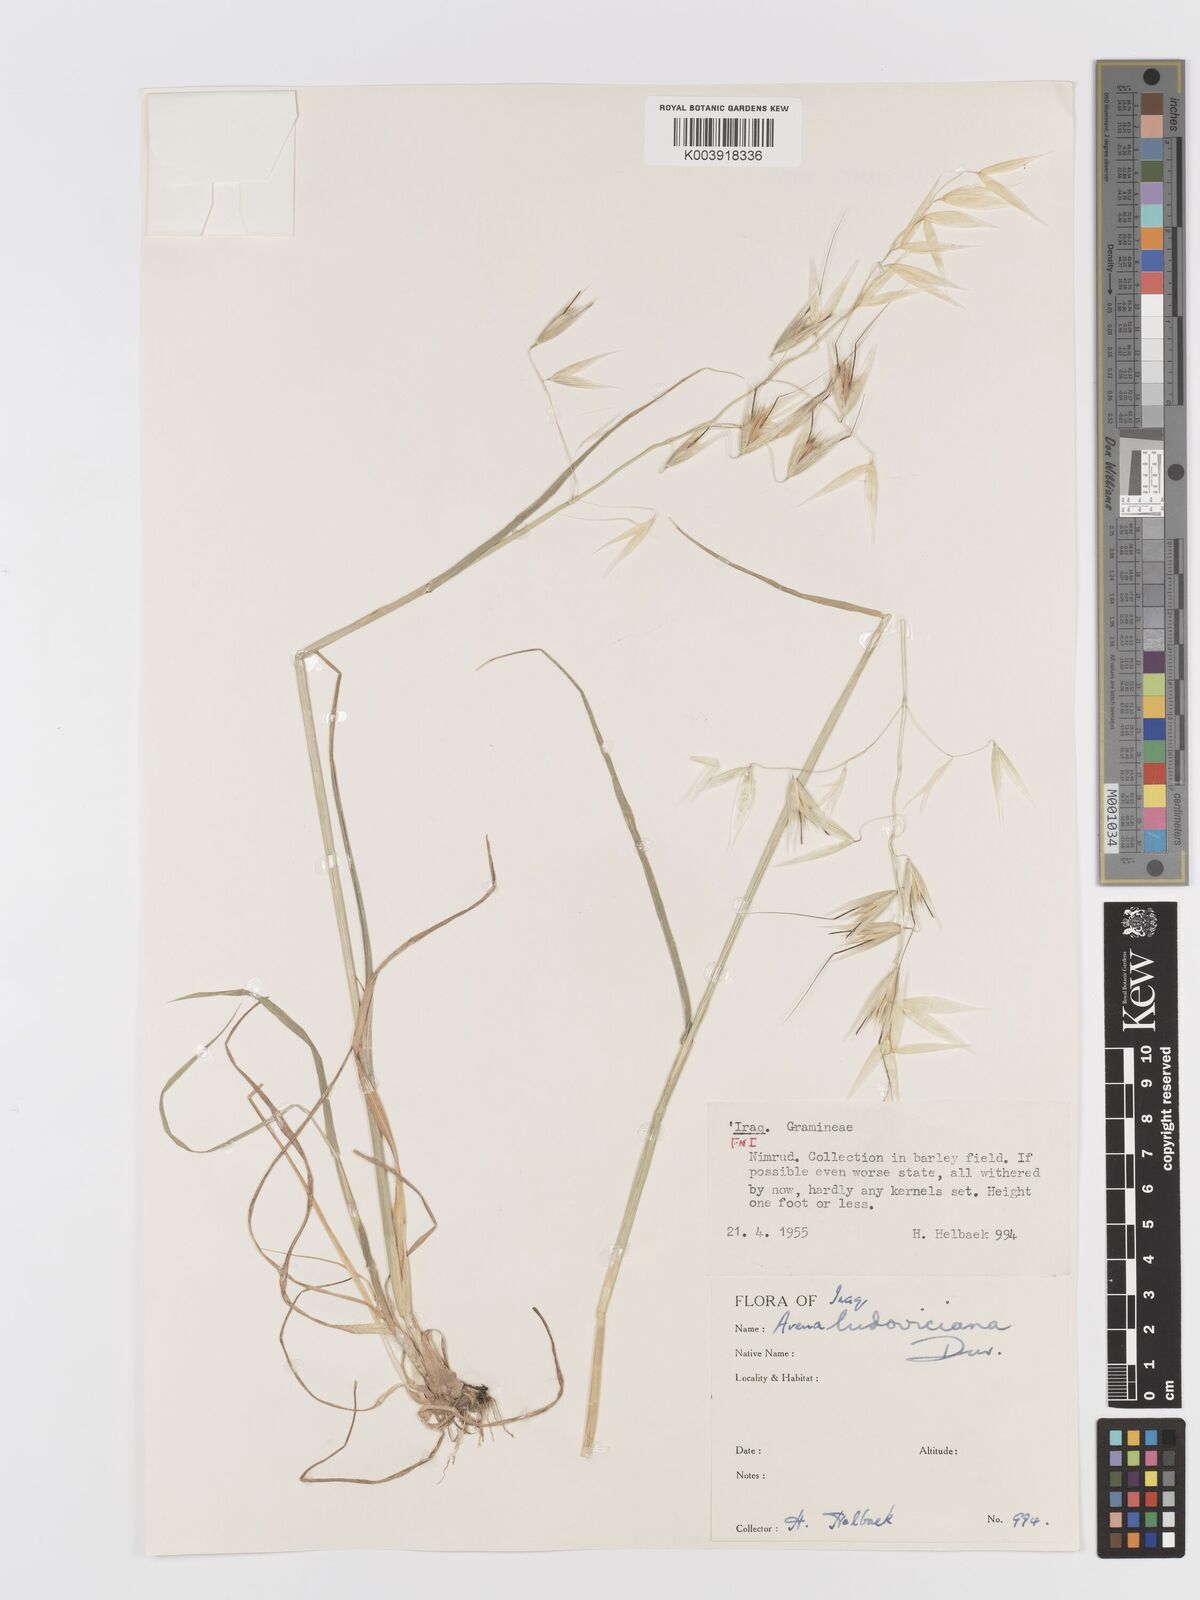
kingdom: Plantae
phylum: Tracheophyta
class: Liliopsida
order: Poales
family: Poaceae
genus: Avena
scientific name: Avena sterilis
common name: Animated oat
